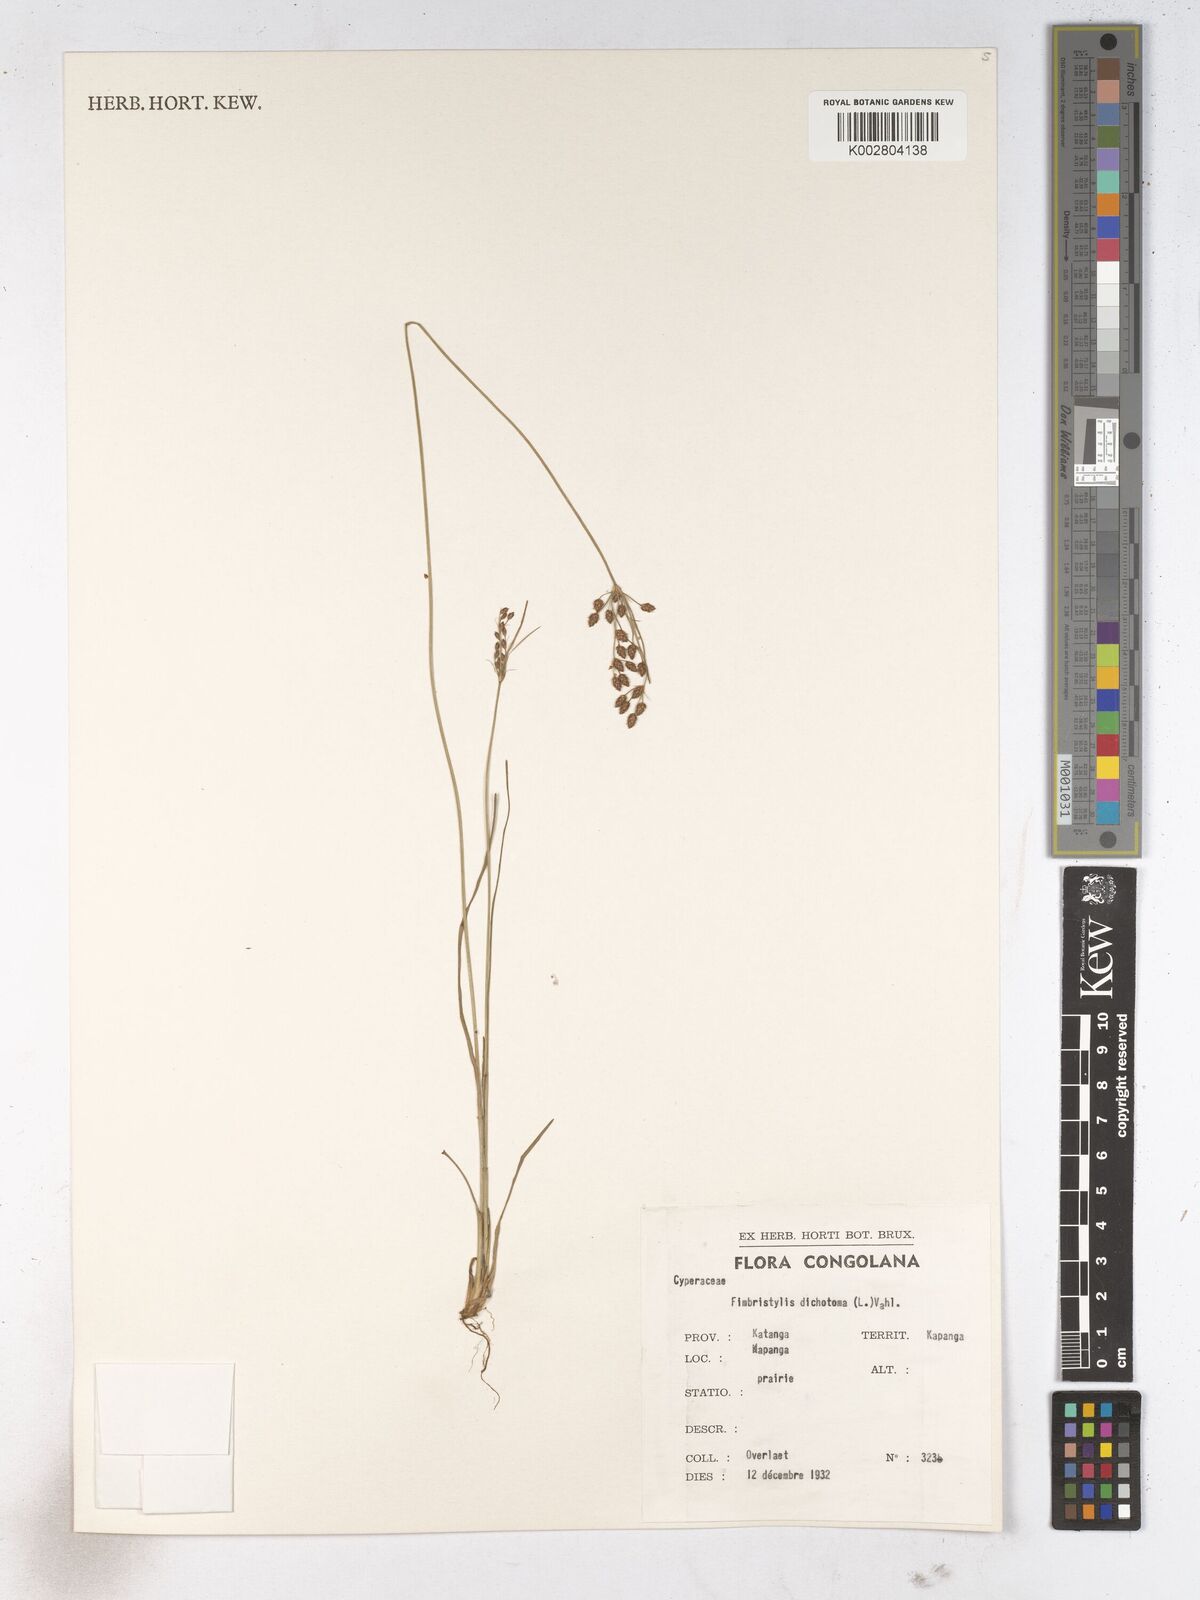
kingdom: Plantae
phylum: Tracheophyta
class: Liliopsida
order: Poales
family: Cyperaceae
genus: Fimbristylis
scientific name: Fimbristylis dichotoma
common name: Forked fimbry
